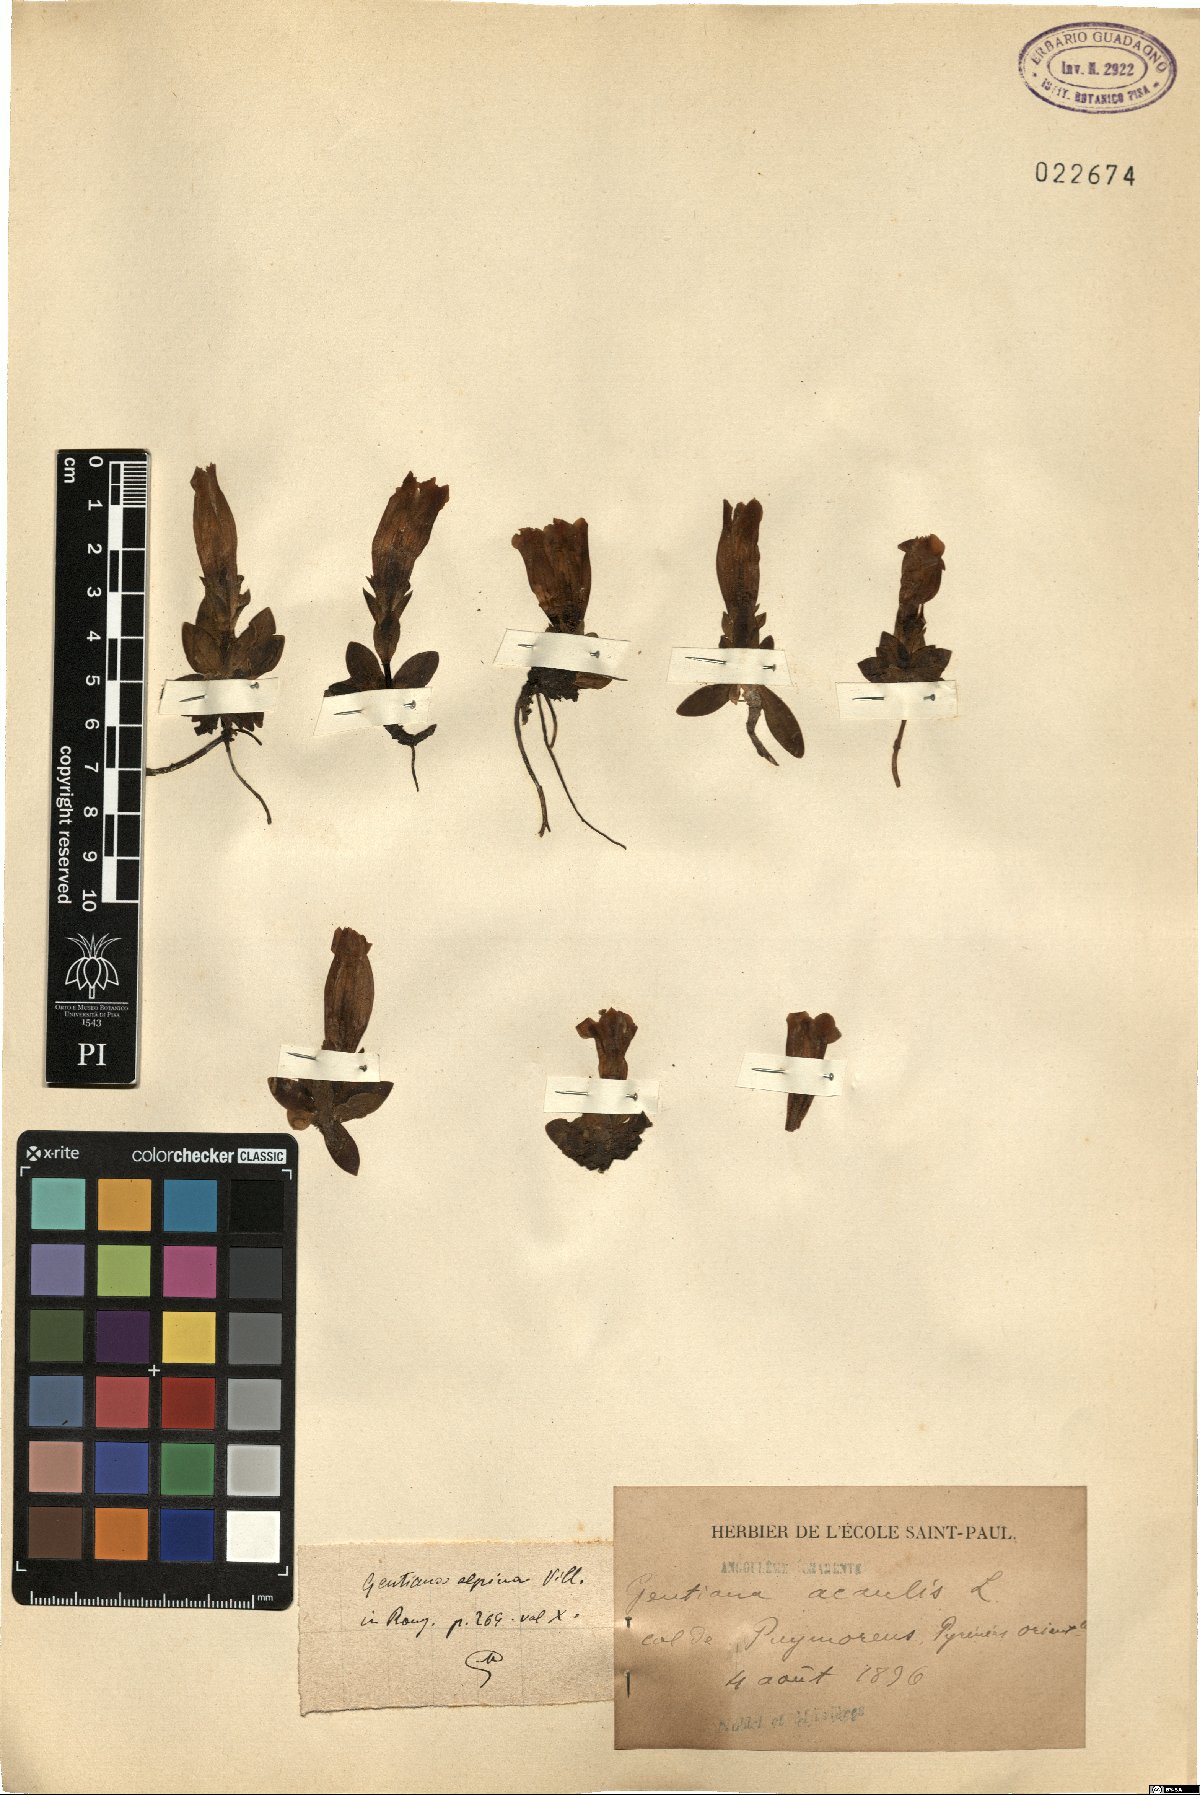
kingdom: Plantae
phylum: Tracheophyta
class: Magnoliopsida
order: Gentianales
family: Gentianaceae
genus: Gentiana
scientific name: Gentiana alpina
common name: Southern gentian
